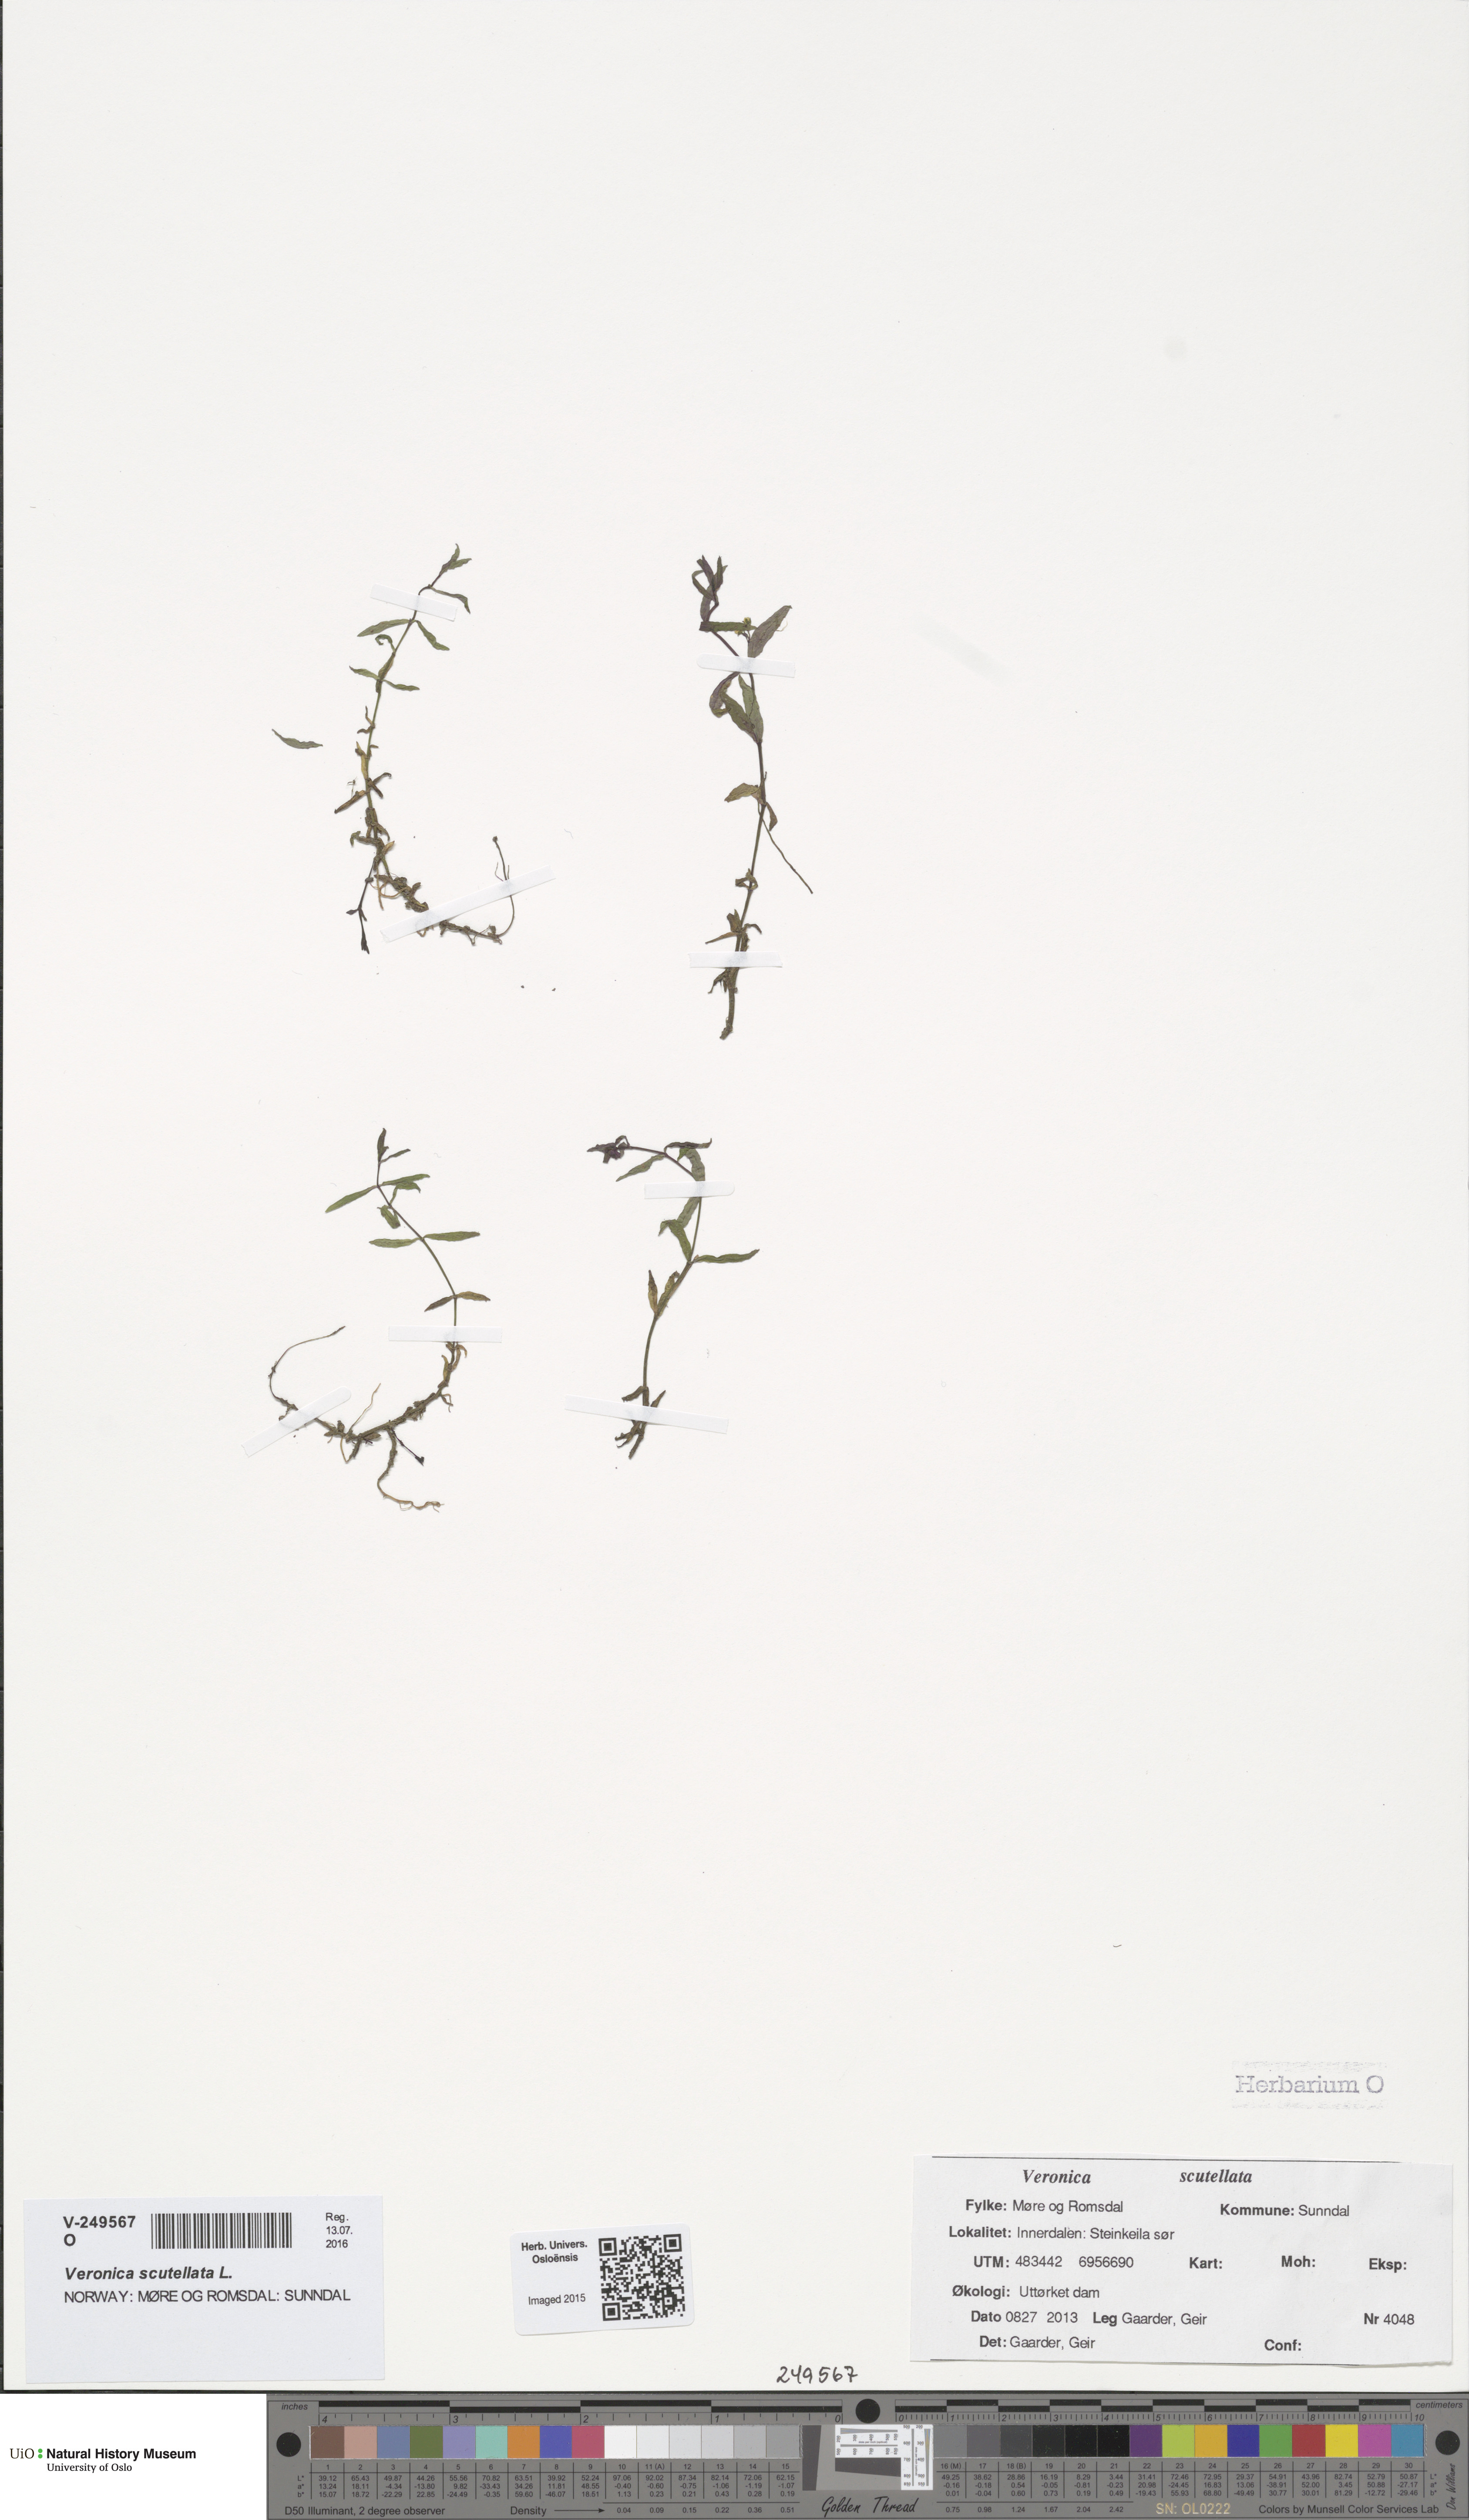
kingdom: Plantae
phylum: Tracheophyta
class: Magnoliopsida
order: Lamiales
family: Plantaginaceae
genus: Veronica
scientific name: Veronica scutellata
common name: Marsh speedwell
